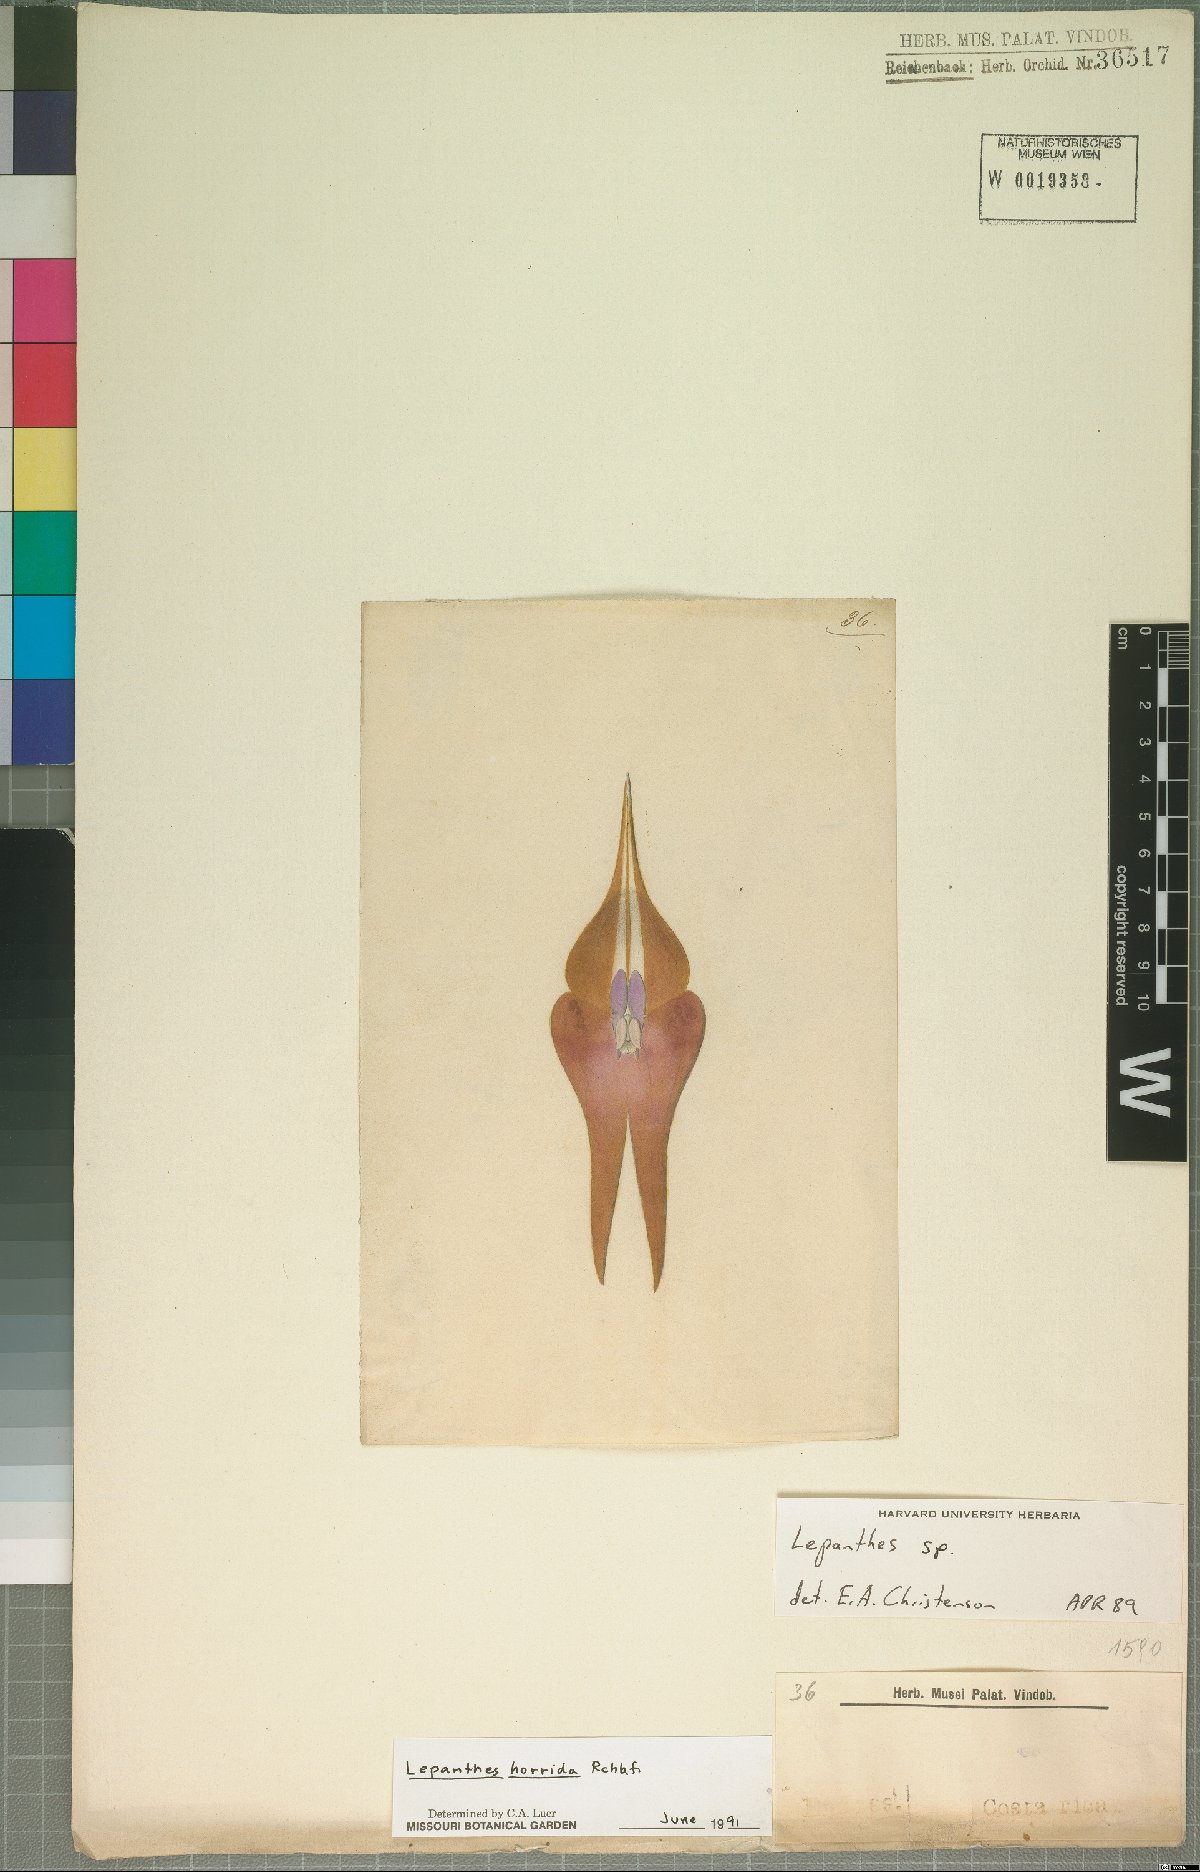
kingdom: Plantae
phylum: Tracheophyta
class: Liliopsida
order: Asparagales
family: Orchidaceae
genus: Lepanthes
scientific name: Lepanthes horrida
